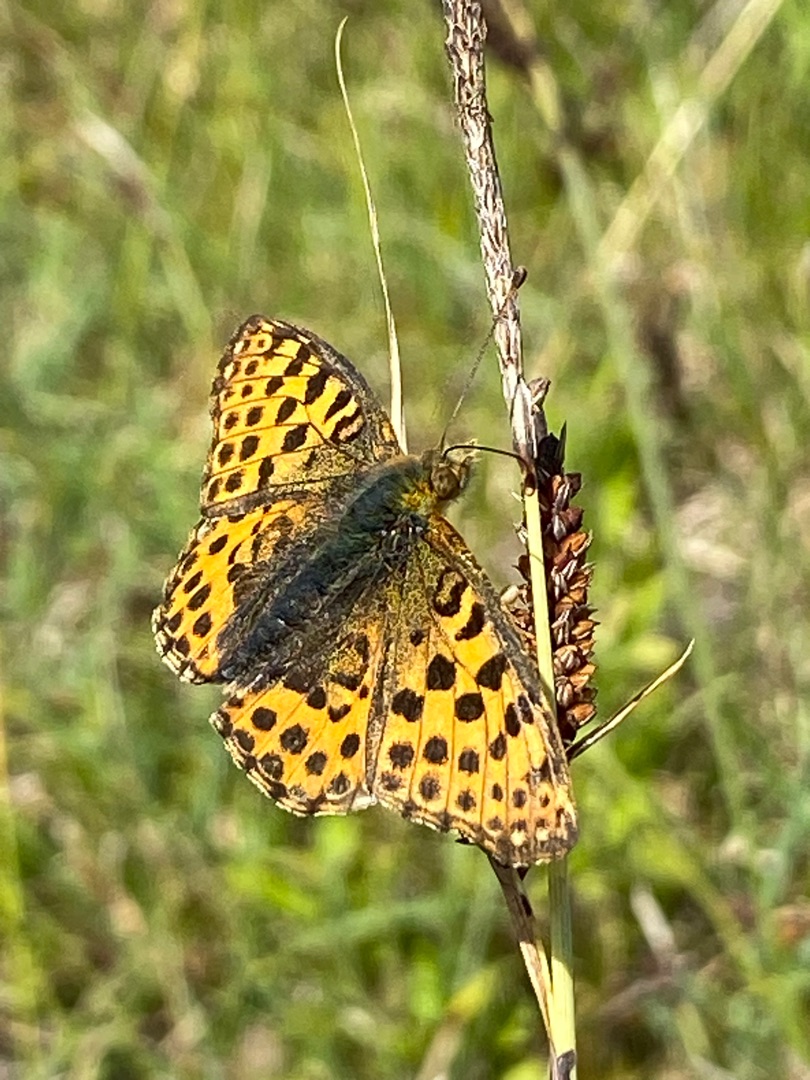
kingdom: Animalia
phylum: Arthropoda
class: Insecta
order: Lepidoptera
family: Nymphalidae
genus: Issoria
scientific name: Issoria lathonia
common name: Storplettet perlemorsommerfugl
